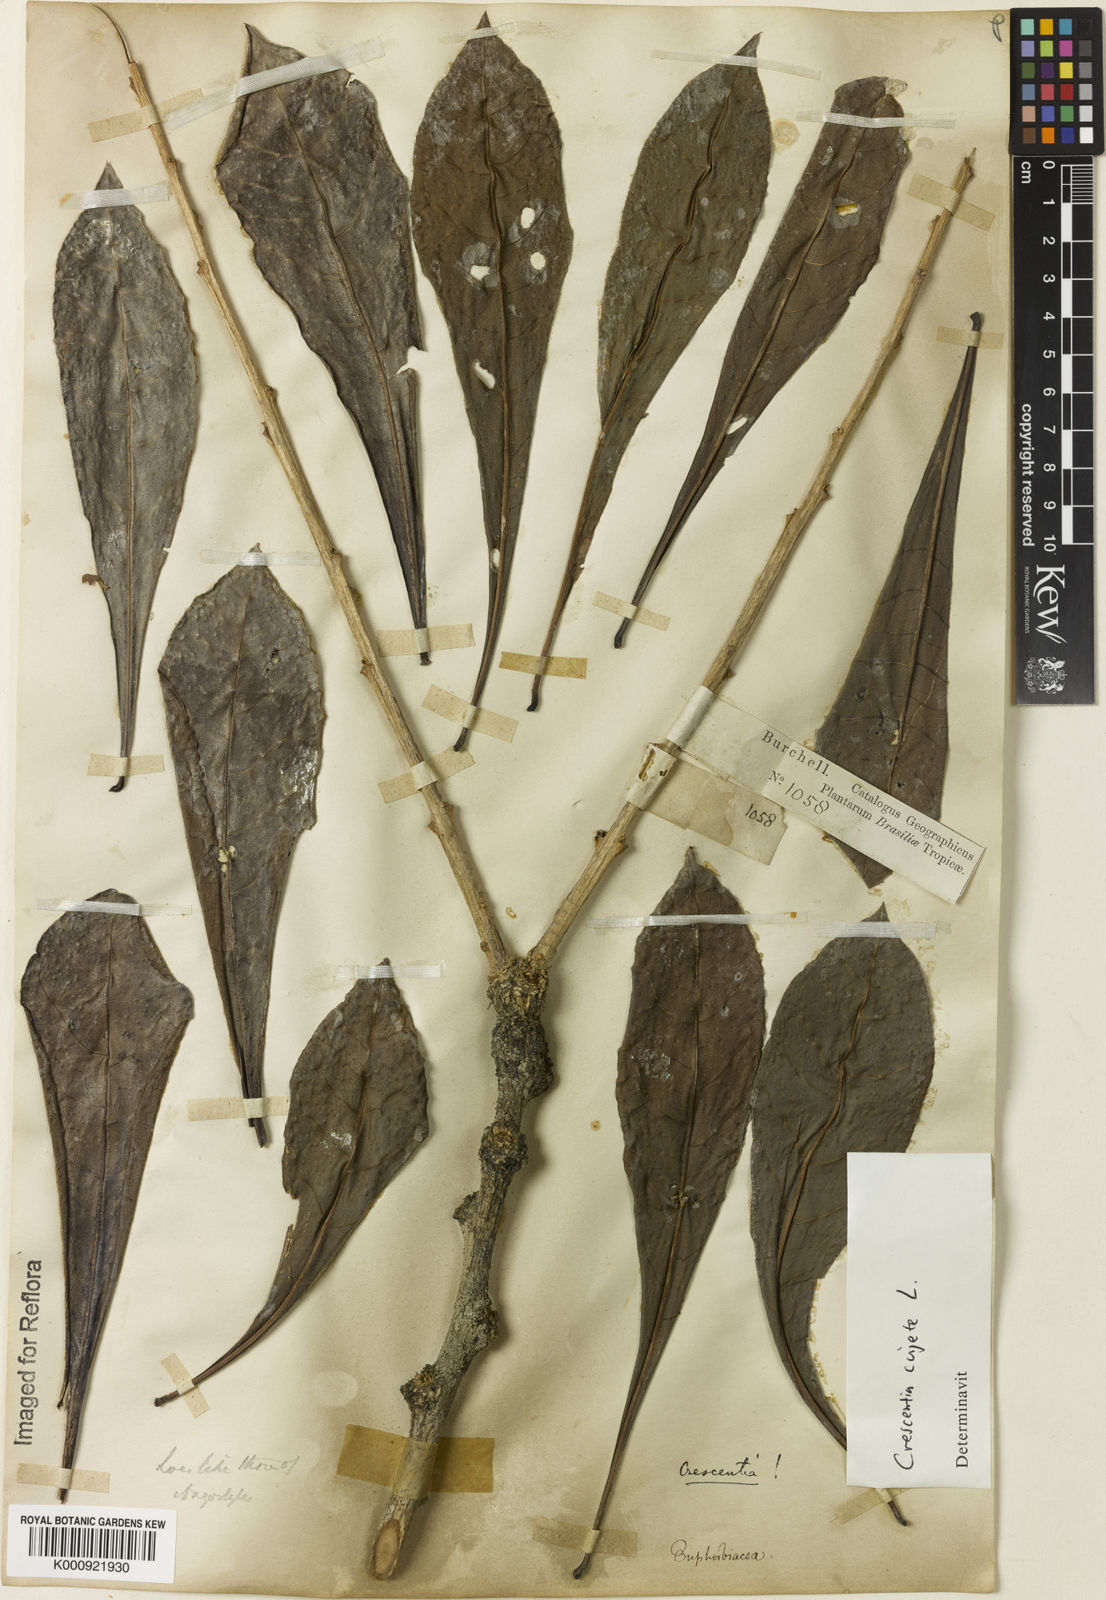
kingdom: Plantae
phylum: Tracheophyta
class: Magnoliopsida
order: Lamiales
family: Bignoniaceae
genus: Crescentia
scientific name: Crescentia cujete
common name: Calabash
